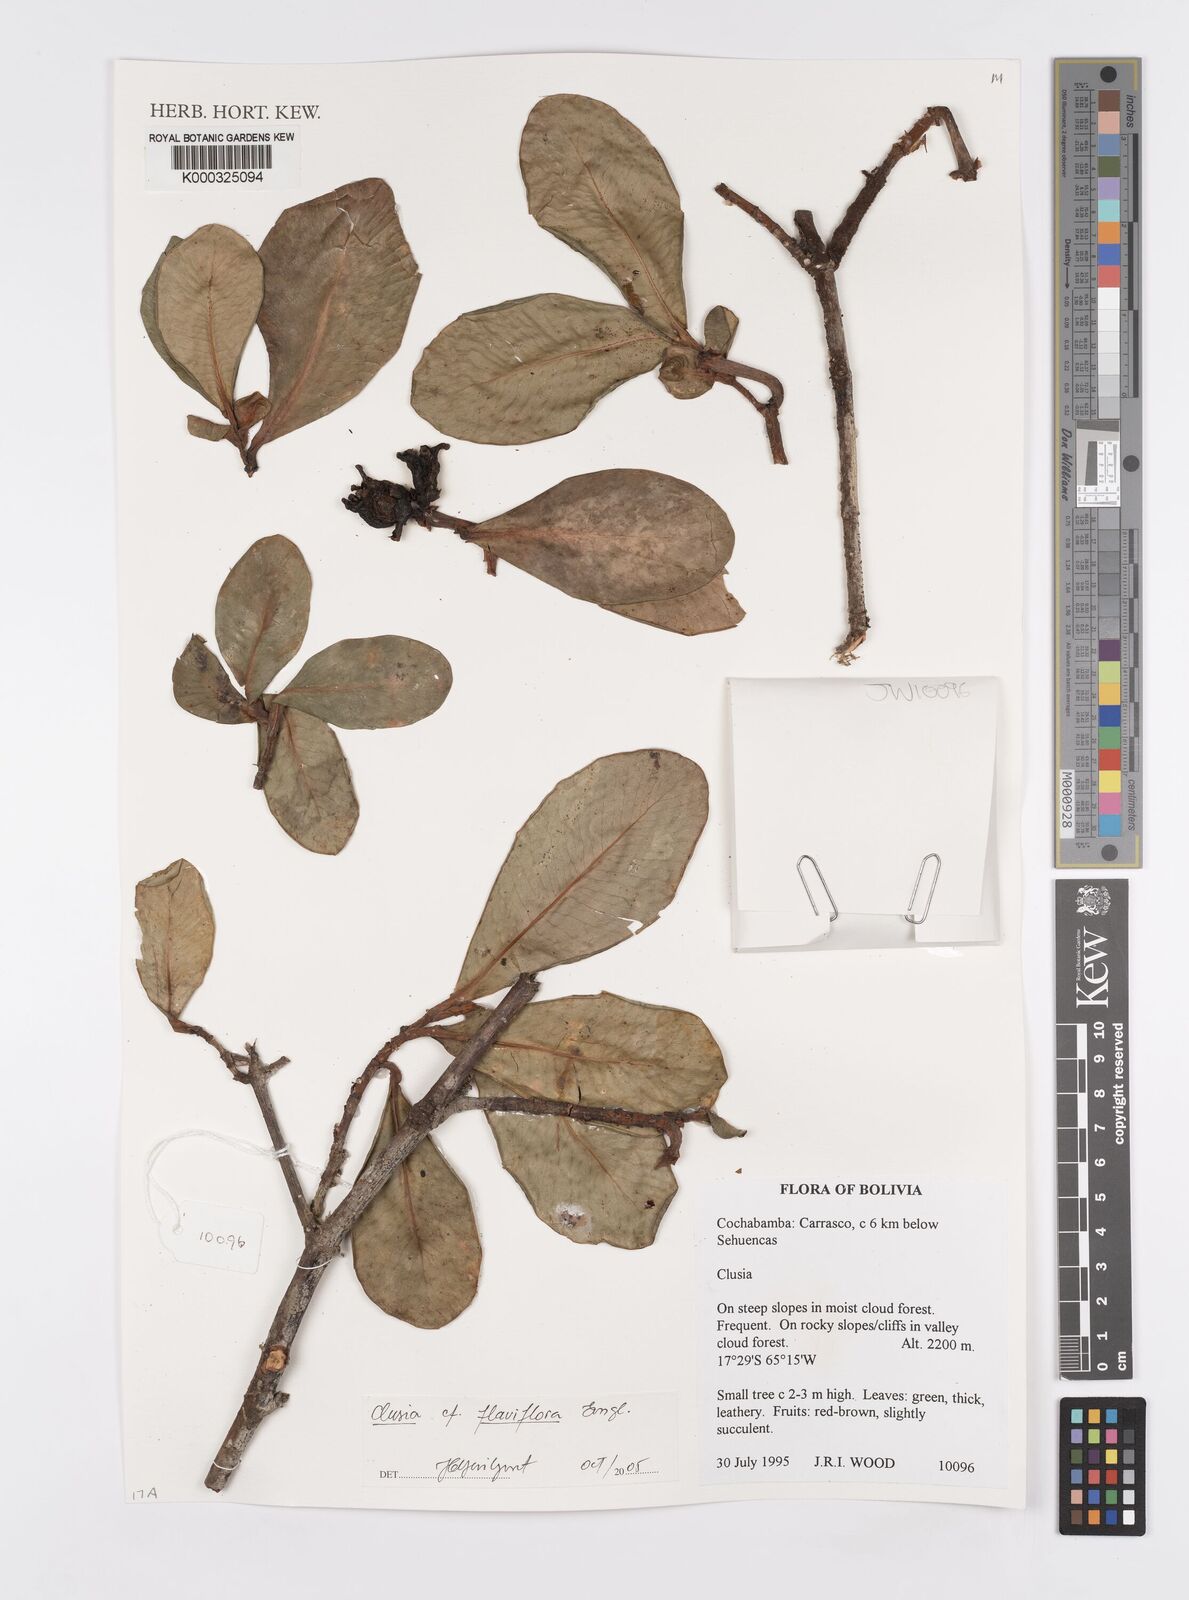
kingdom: Plantae
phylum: Tracheophyta
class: Magnoliopsida
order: Malpighiales
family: Clusiaceae
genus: Clusia
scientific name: Clusia
